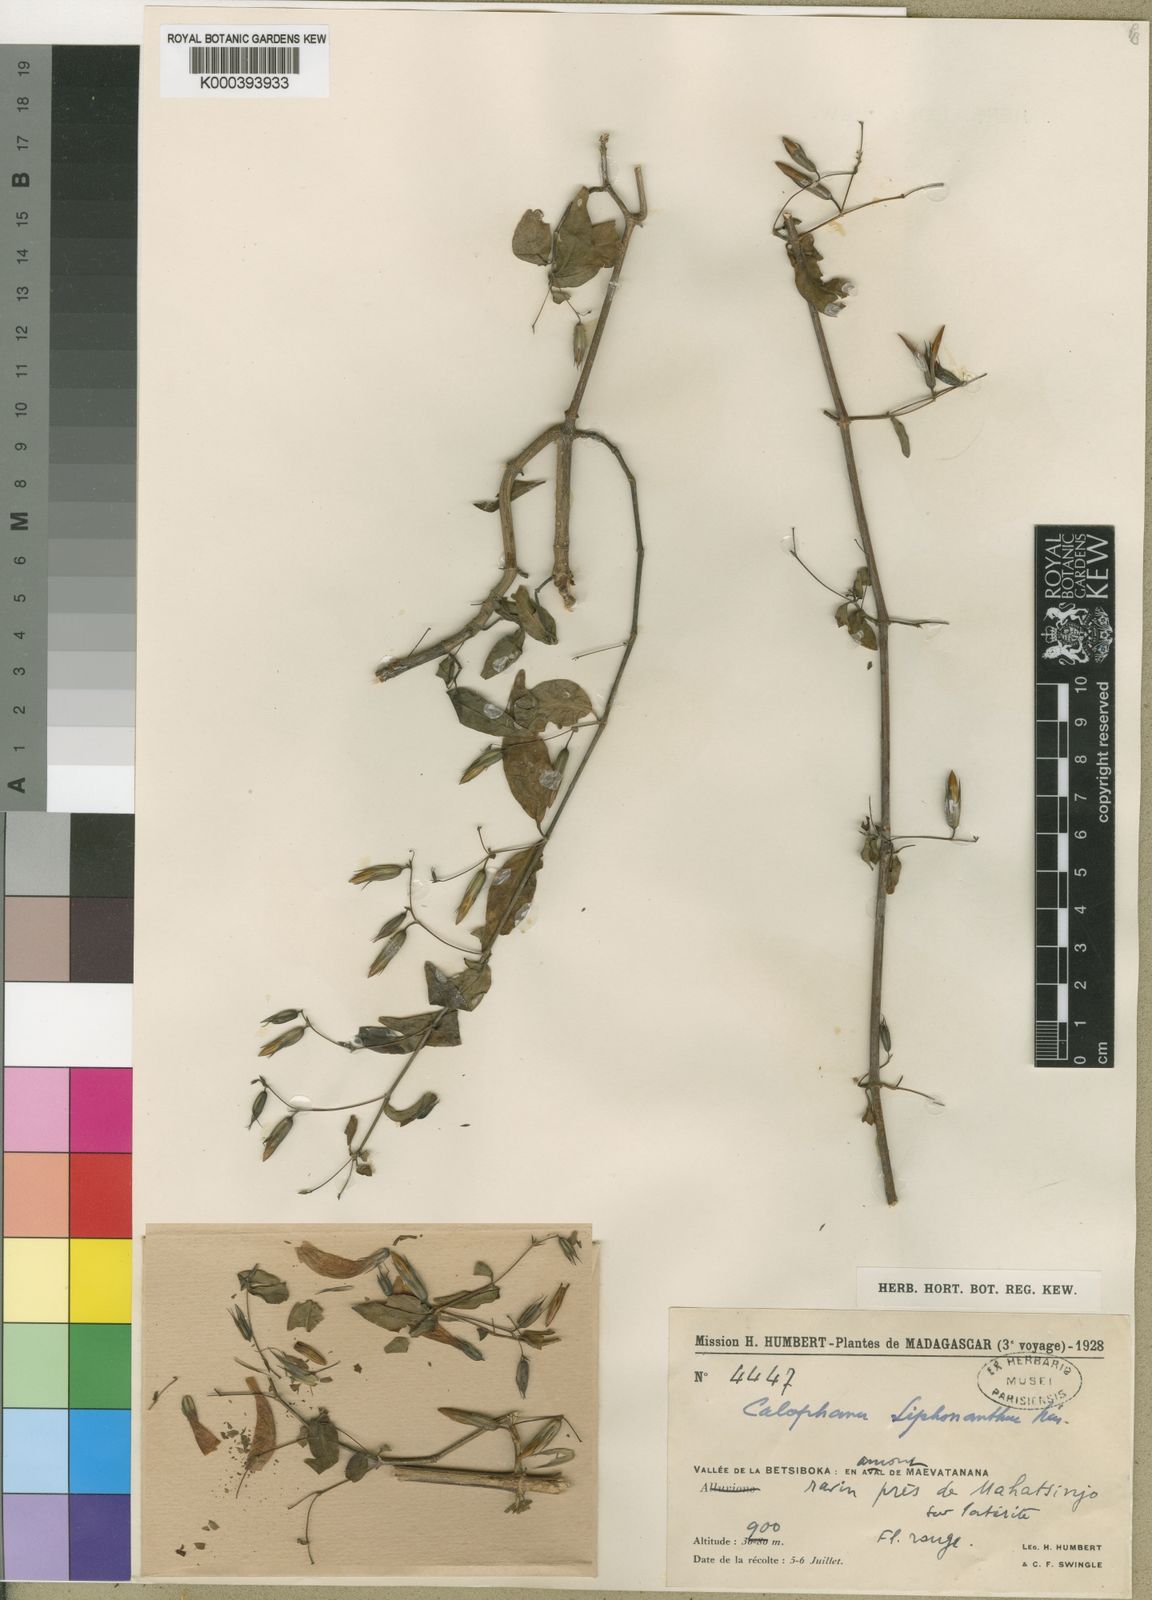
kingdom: Plantae
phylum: Tracheophyta
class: Magnoliopsida
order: Lamiales
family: Acanthaceae
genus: Dyschoriste
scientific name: Dyschoriste siphonantha
